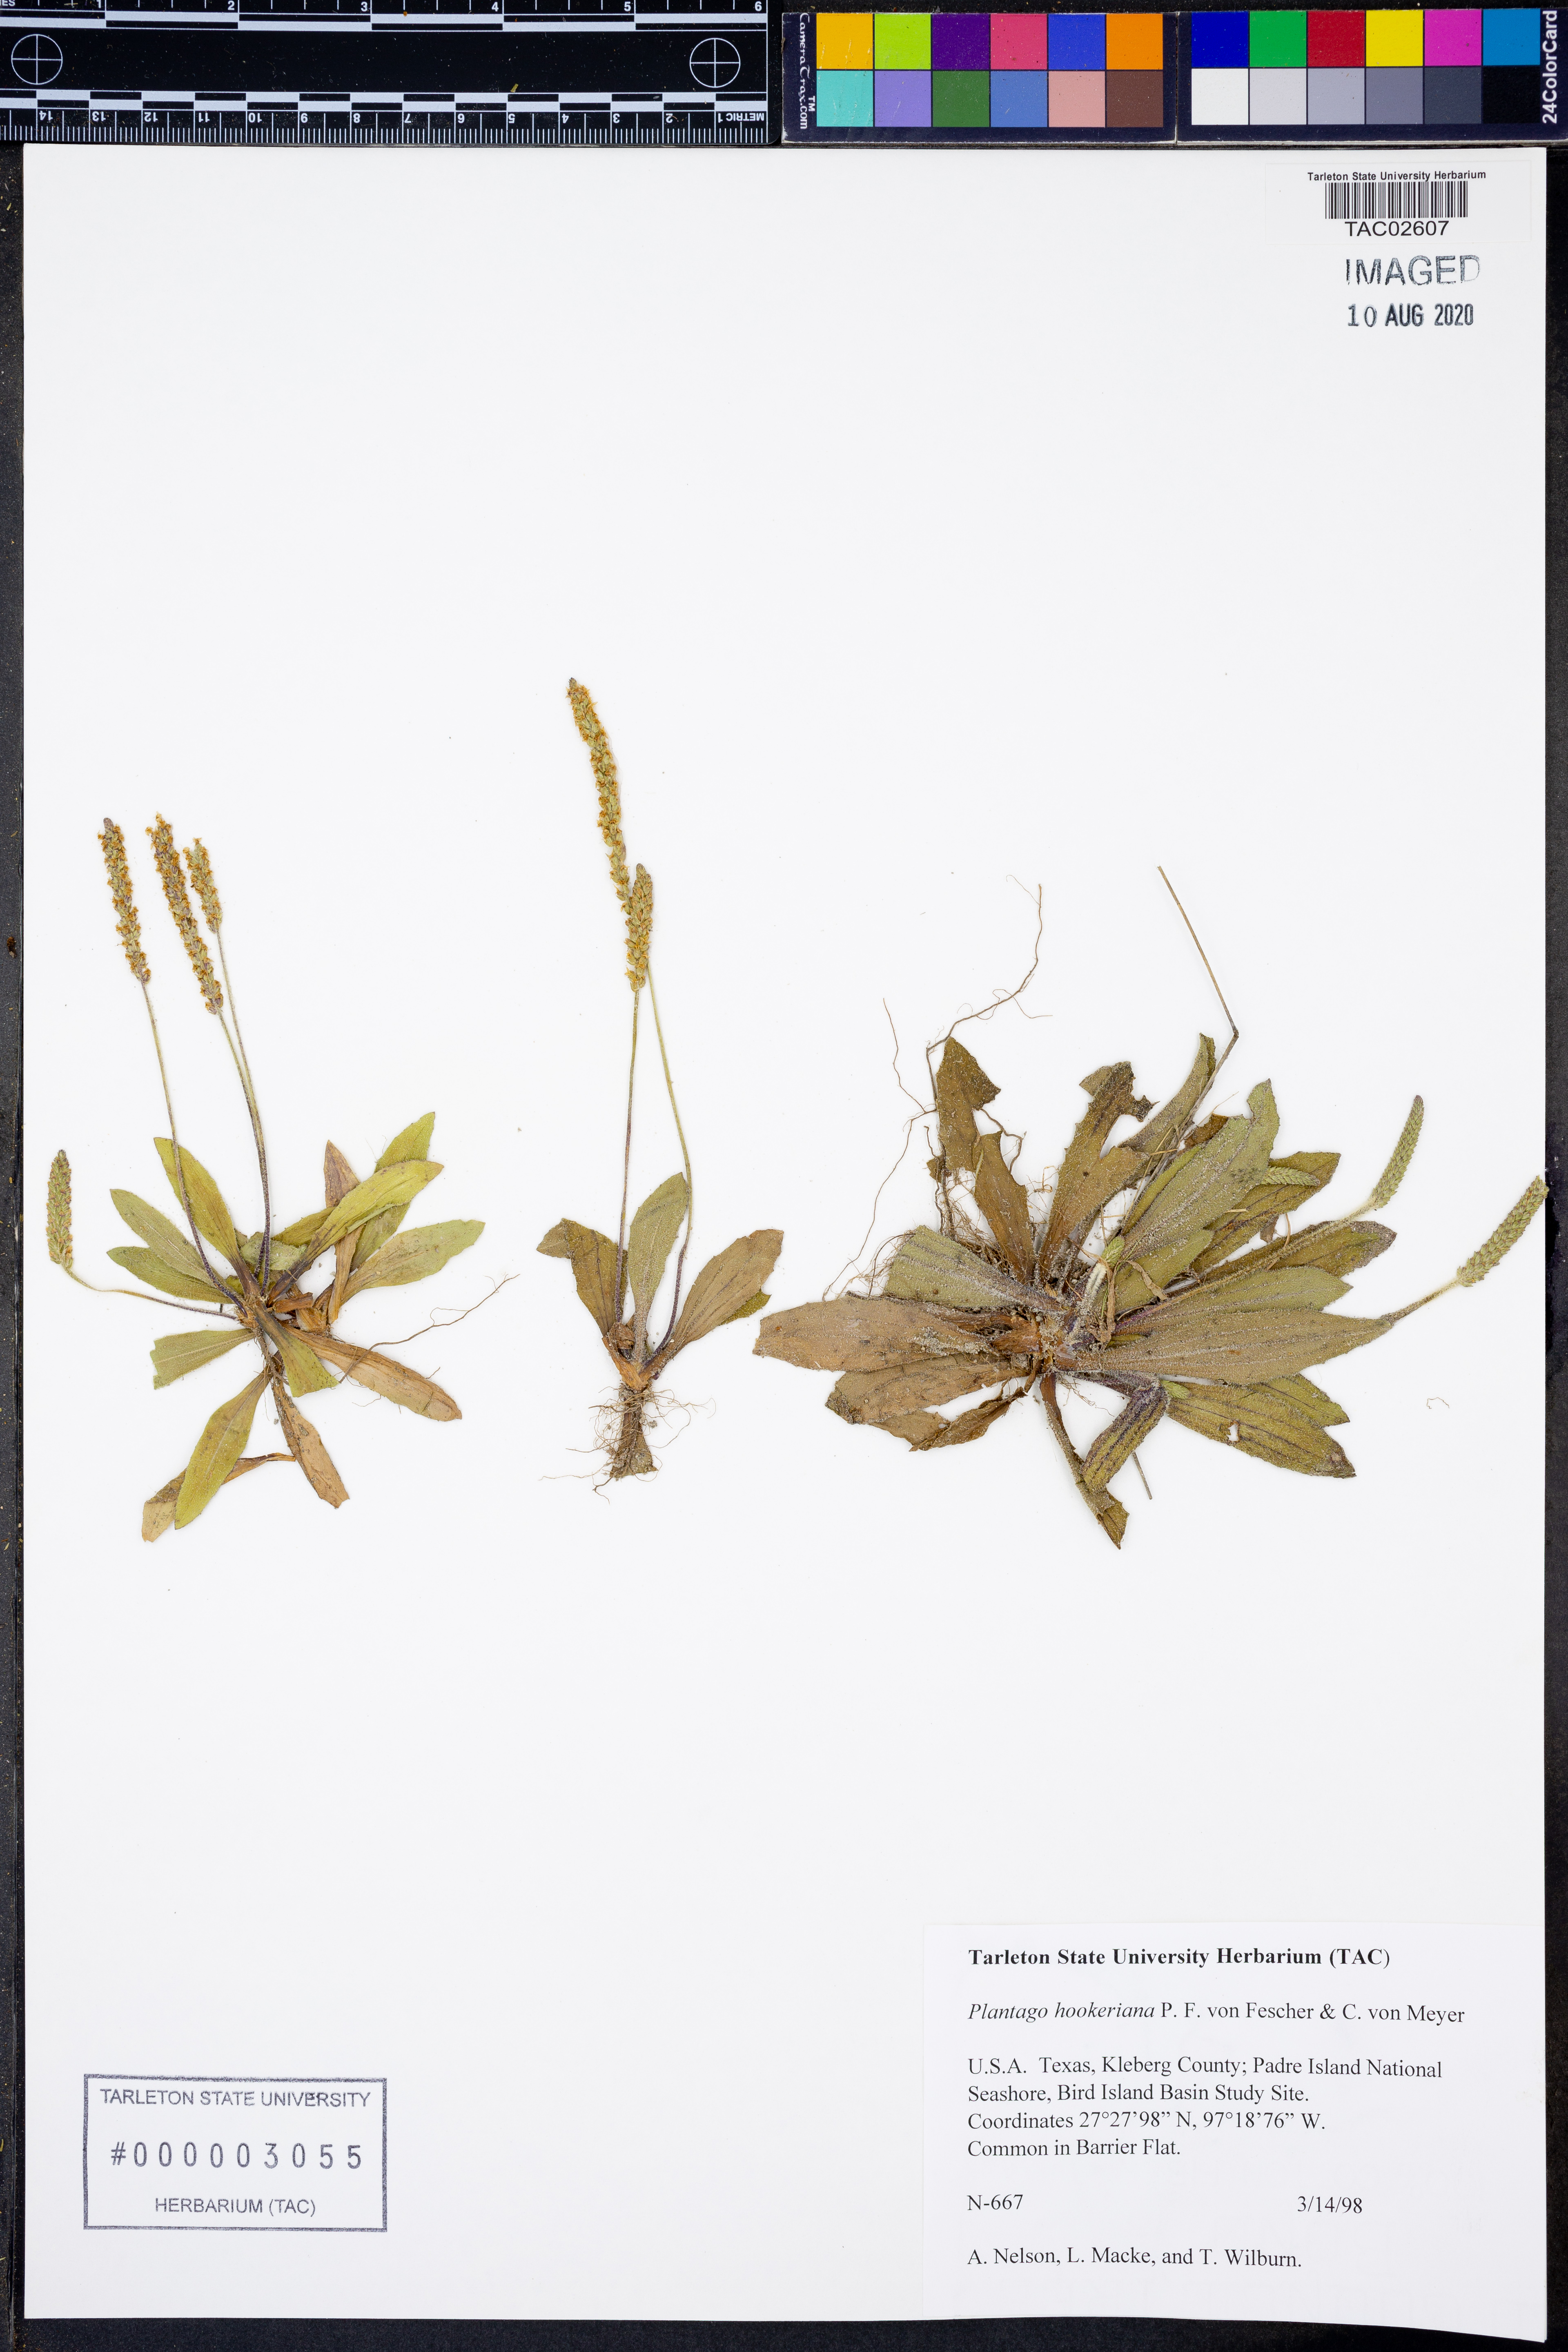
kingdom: Plantae
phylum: Tracheophyta
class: Magnoliopsida
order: Lamiales
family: Plantaginaceae
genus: Plantago
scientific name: Plantago hookeriana
